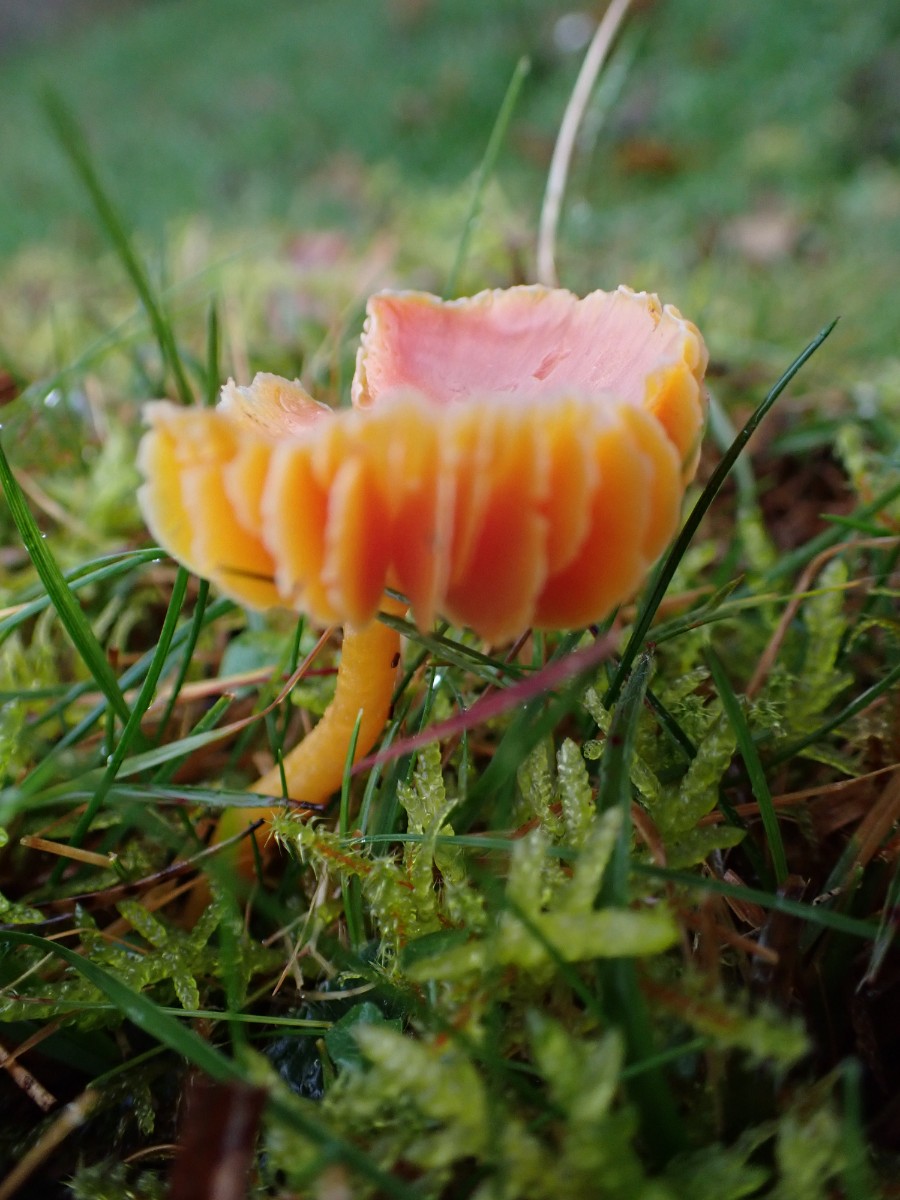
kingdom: Fungi
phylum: Basidiomycota
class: Agaricomycetes
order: Agaricales
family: Hygrophoraceae
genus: Hygrocybe
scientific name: Hygrocybe
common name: vokshat
